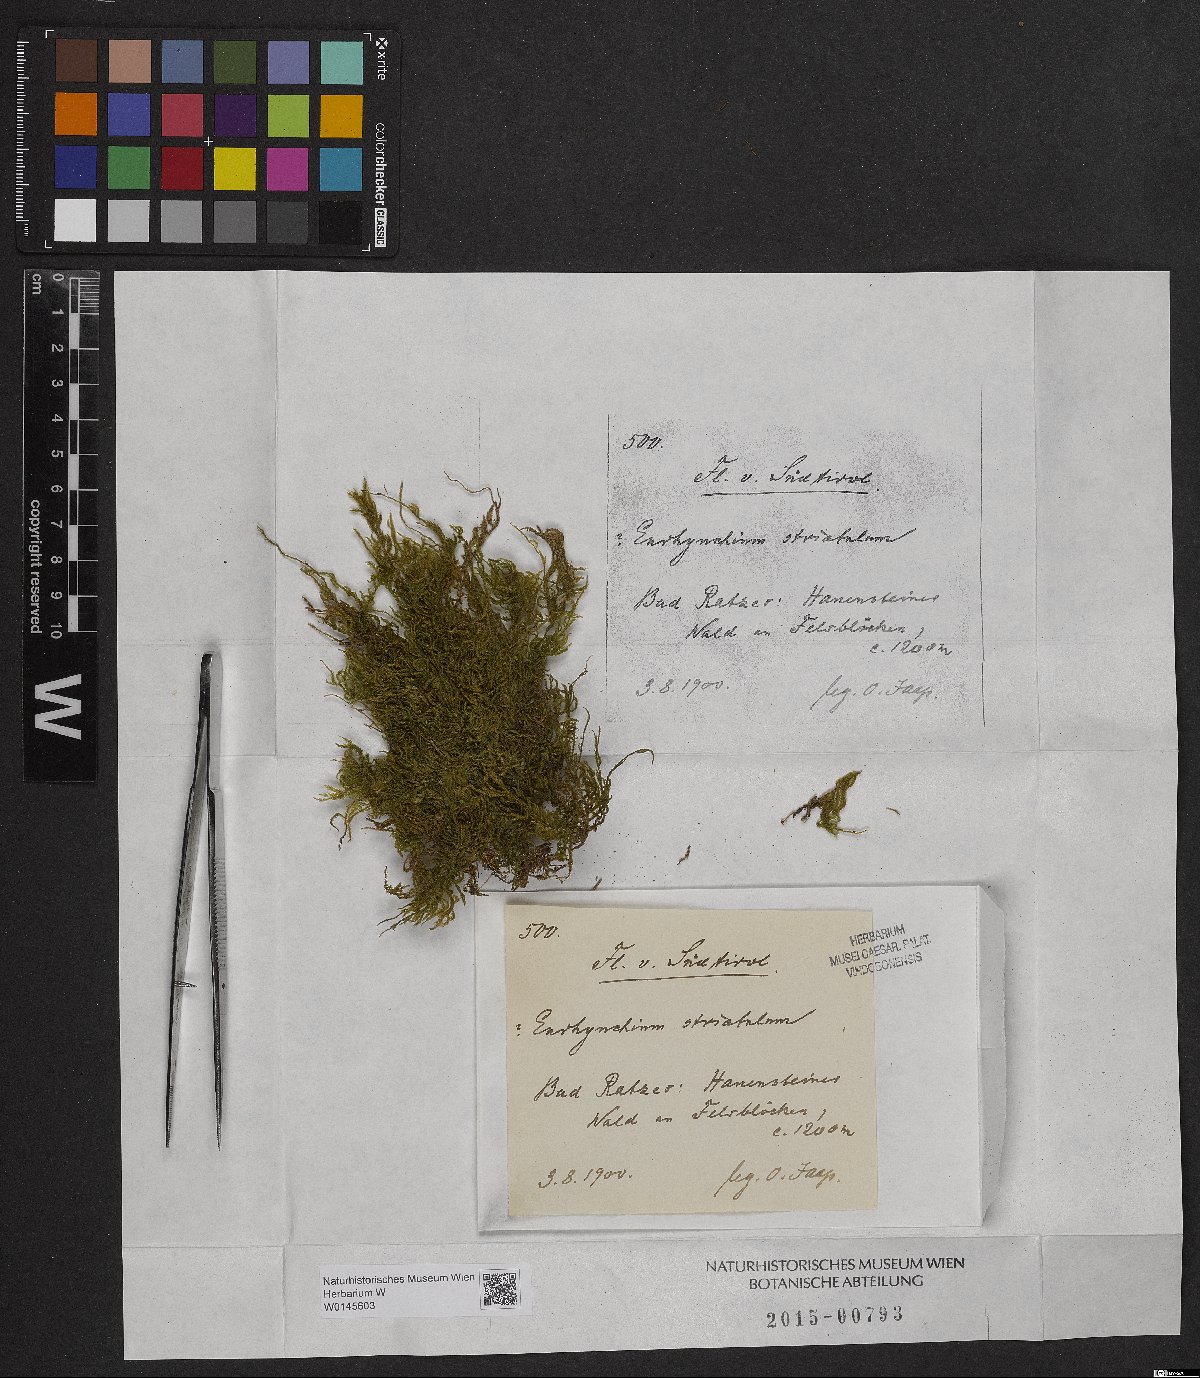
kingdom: Plantae
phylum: Bryophyta
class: Bryopsida
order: Hypnales
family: Brachytheciaceae
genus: Eurhynchium
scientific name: Eurhynchium striatum
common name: Common striated feather-moss
